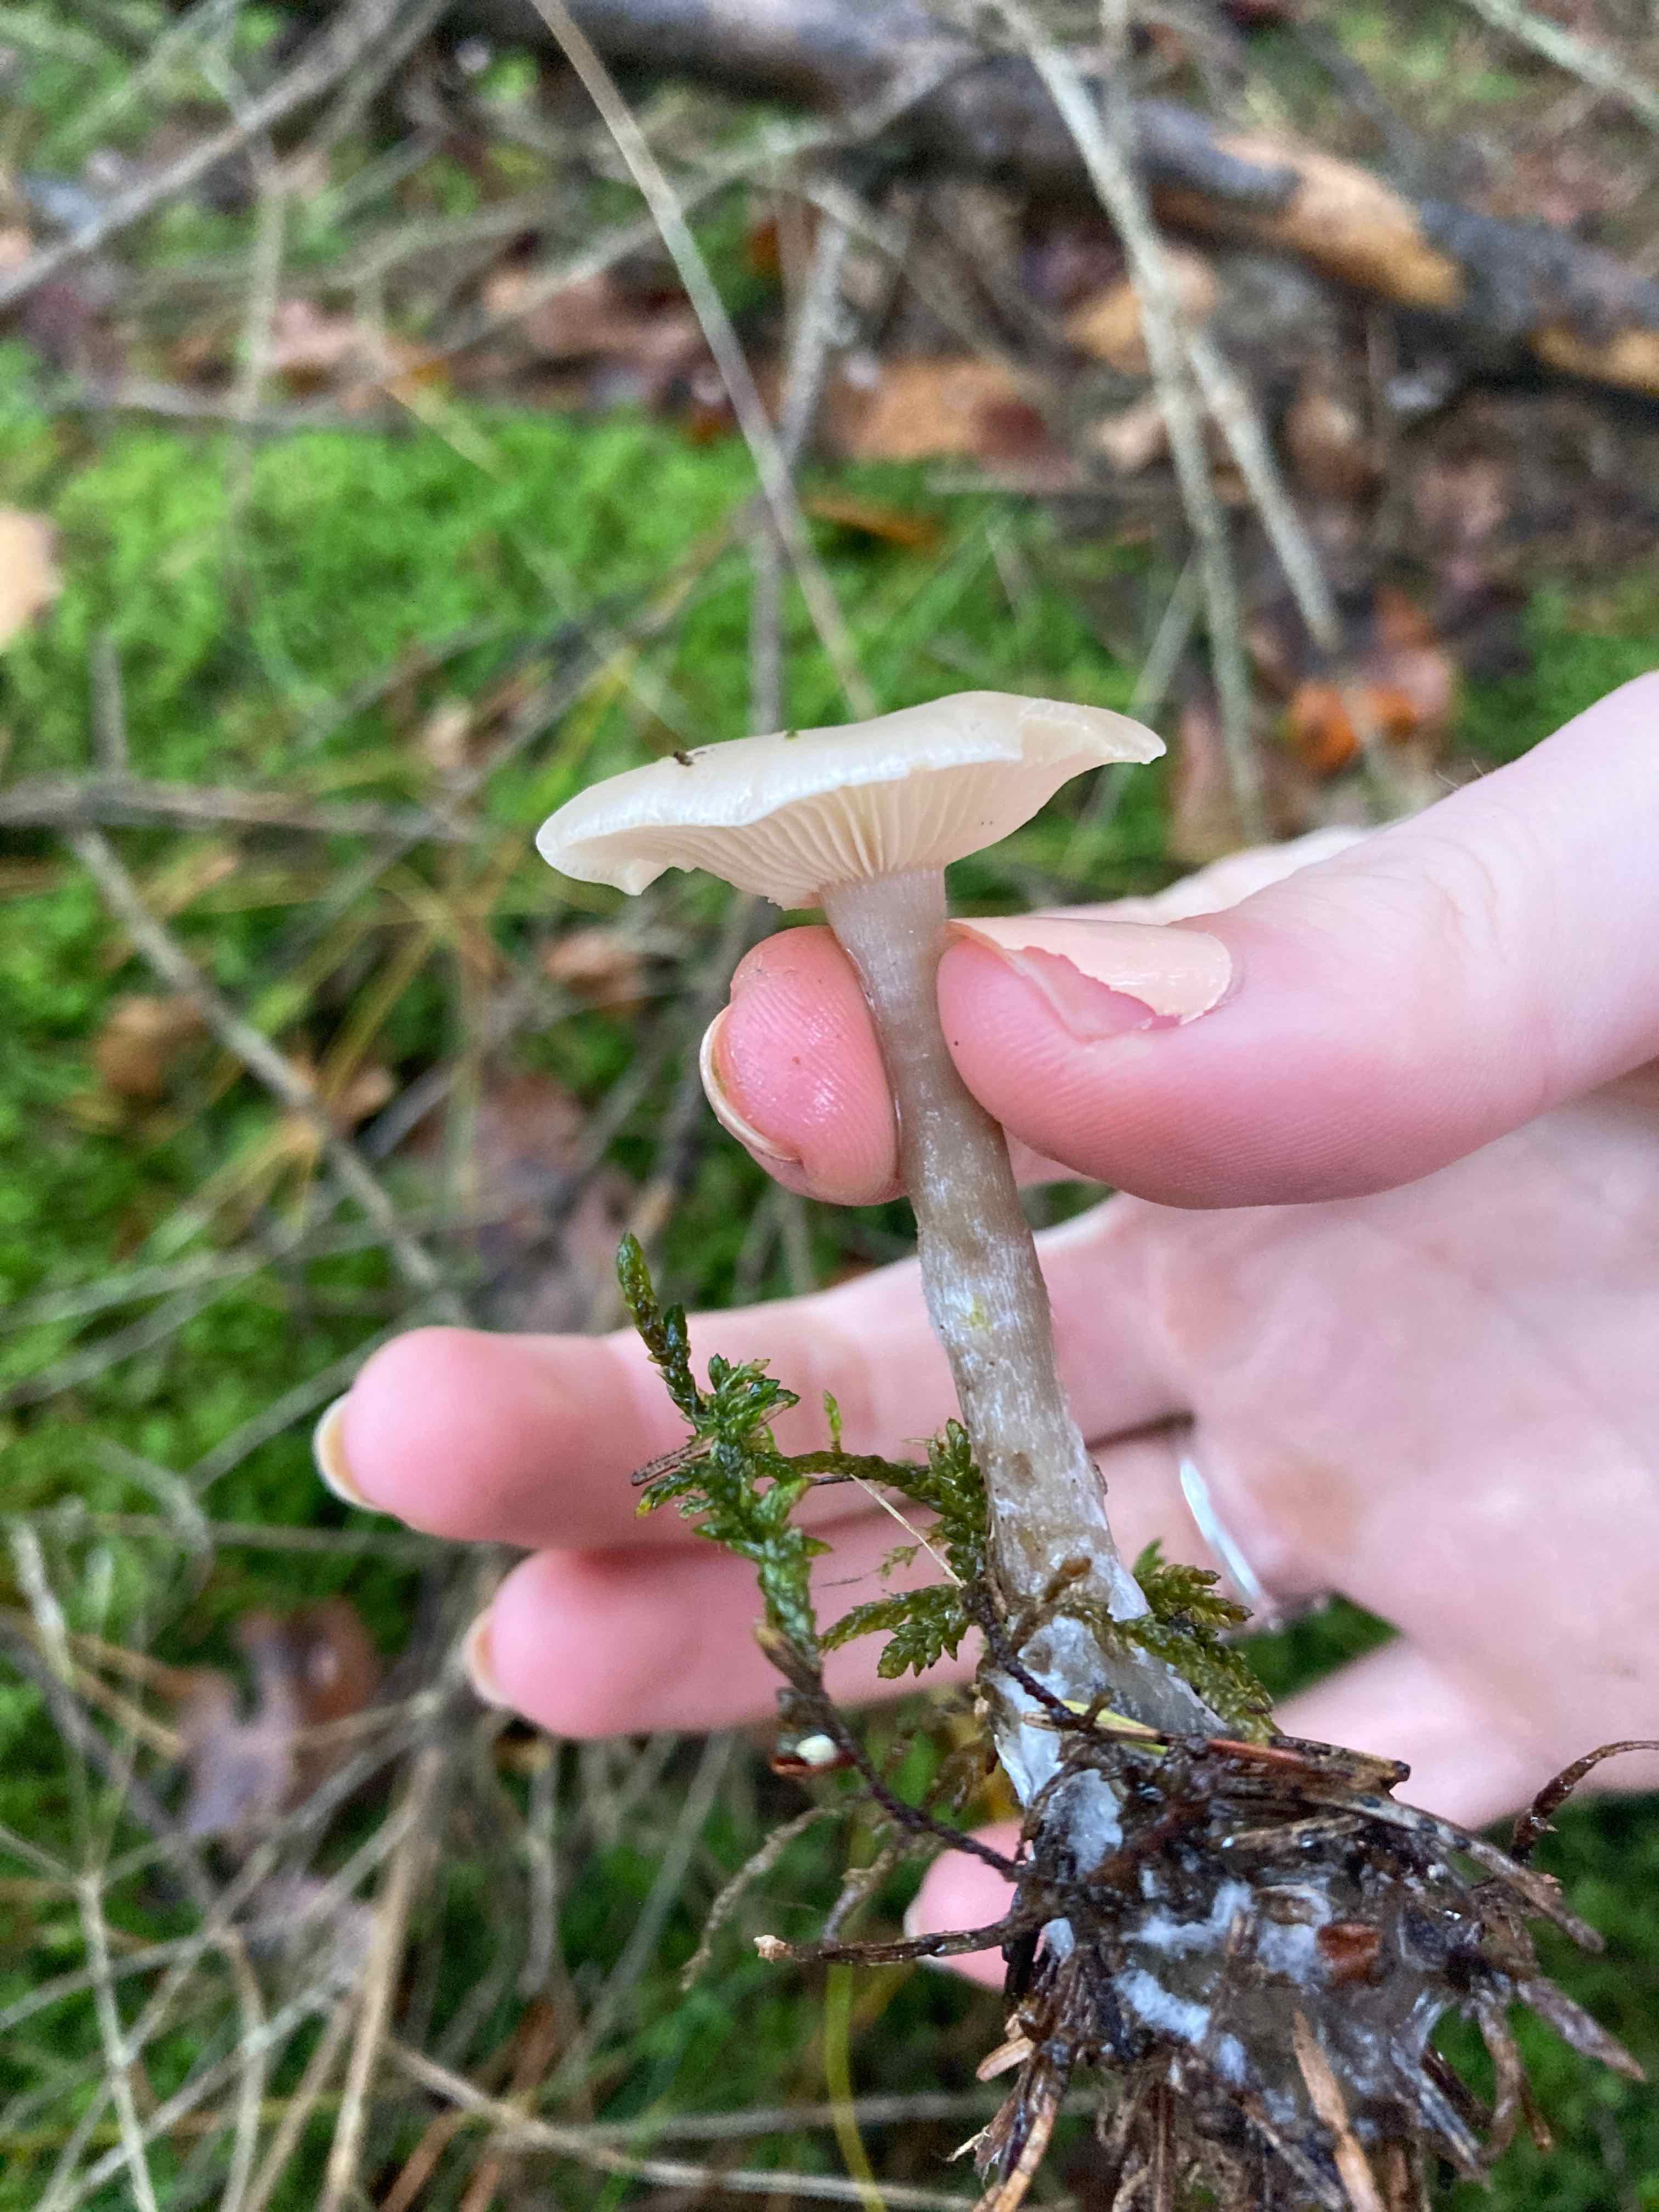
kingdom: Fungi
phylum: Basidiomycota
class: Agaricomycetes
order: Agaricales
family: Tricholomataceae
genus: Clitocybe
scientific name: Clitocybe metachroa
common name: grå tragthat
